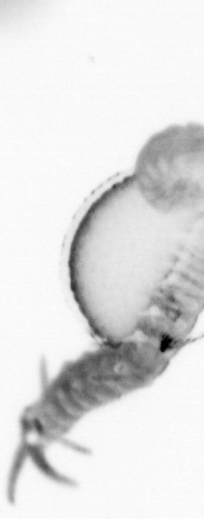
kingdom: Animalia
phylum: Annelida
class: Polychaeta
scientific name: Polychaeta
